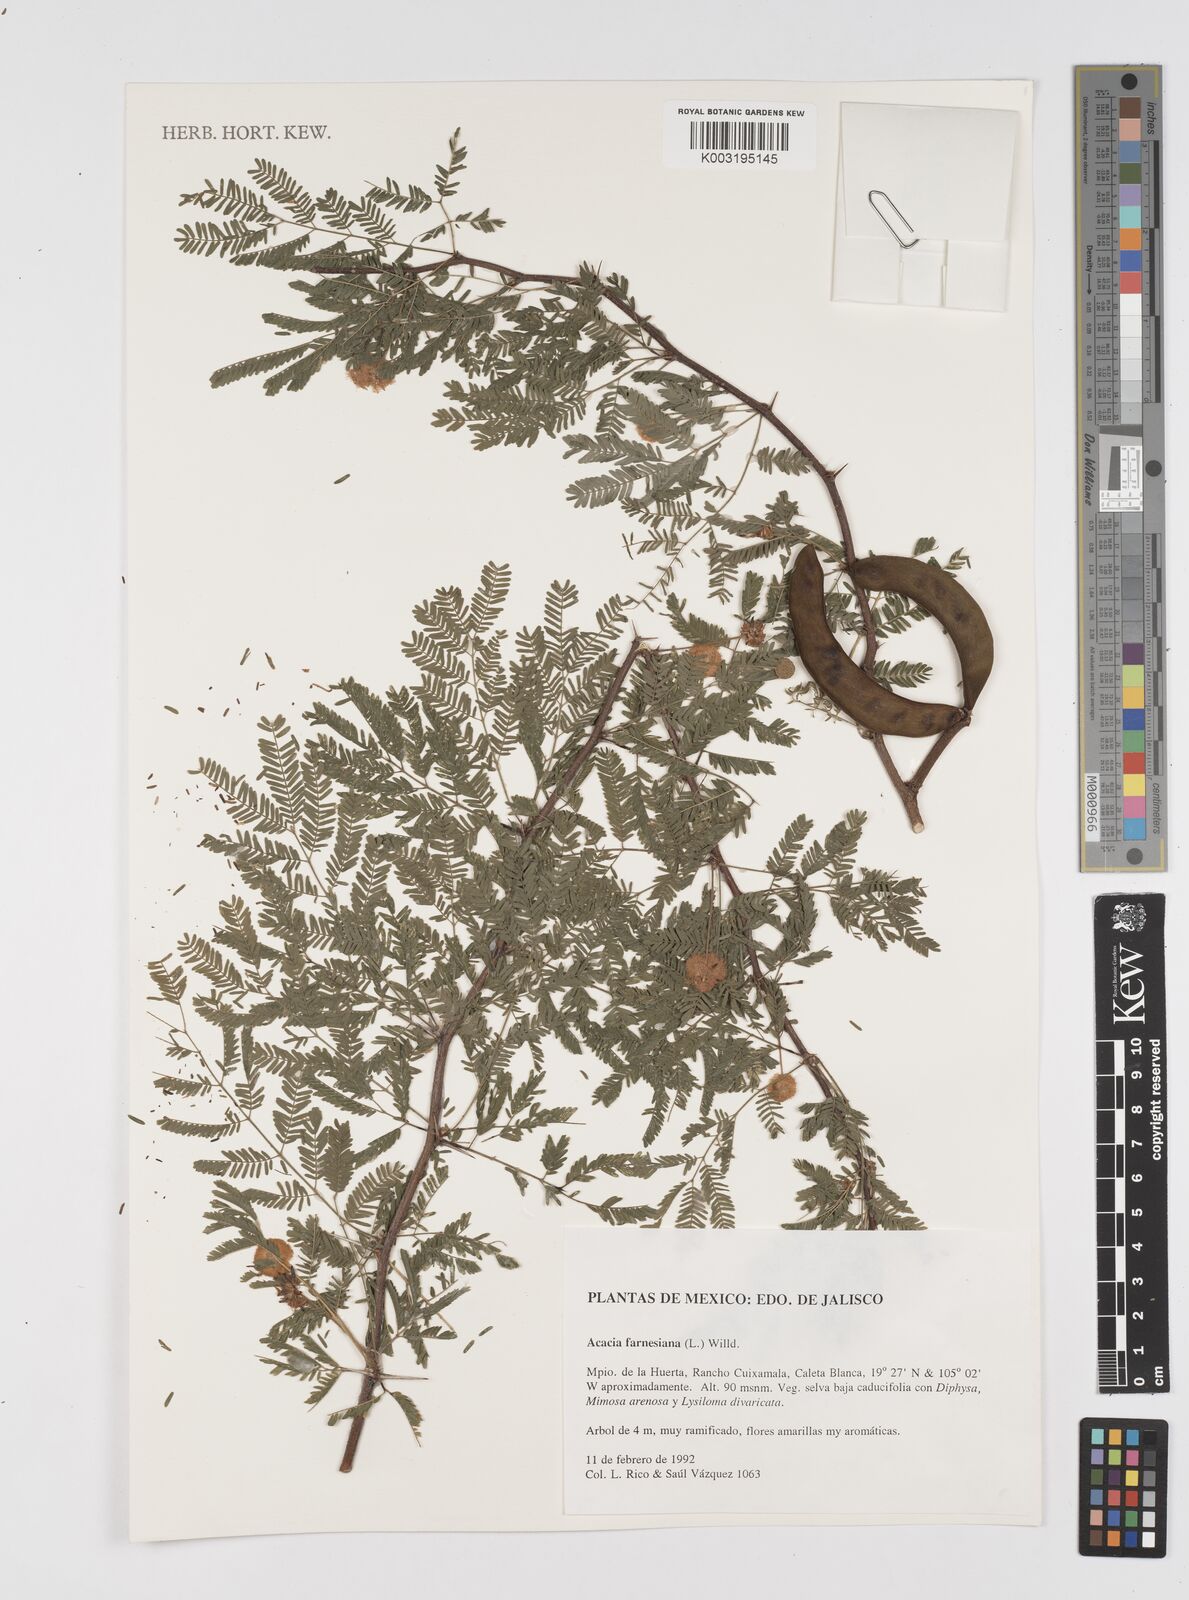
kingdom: Plantae
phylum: Tracheophyta
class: Magnoliopsida
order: Fabales
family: Fabaceae
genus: Vachellia
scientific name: Vachellia farnesiana
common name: Sweet acacia
